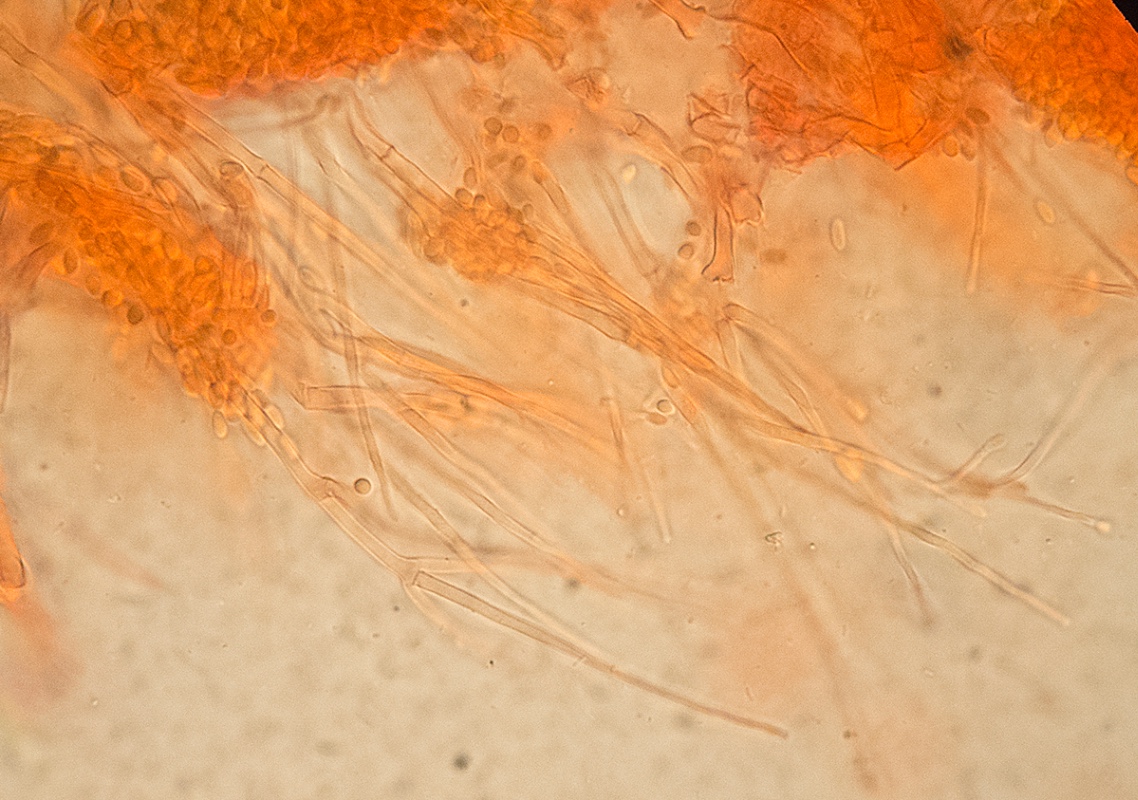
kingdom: Fungi
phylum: Ascomycota
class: Sordariomycetes
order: Hypocreales
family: Nectriaceae
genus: Cosmospora
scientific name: Cosmospora
